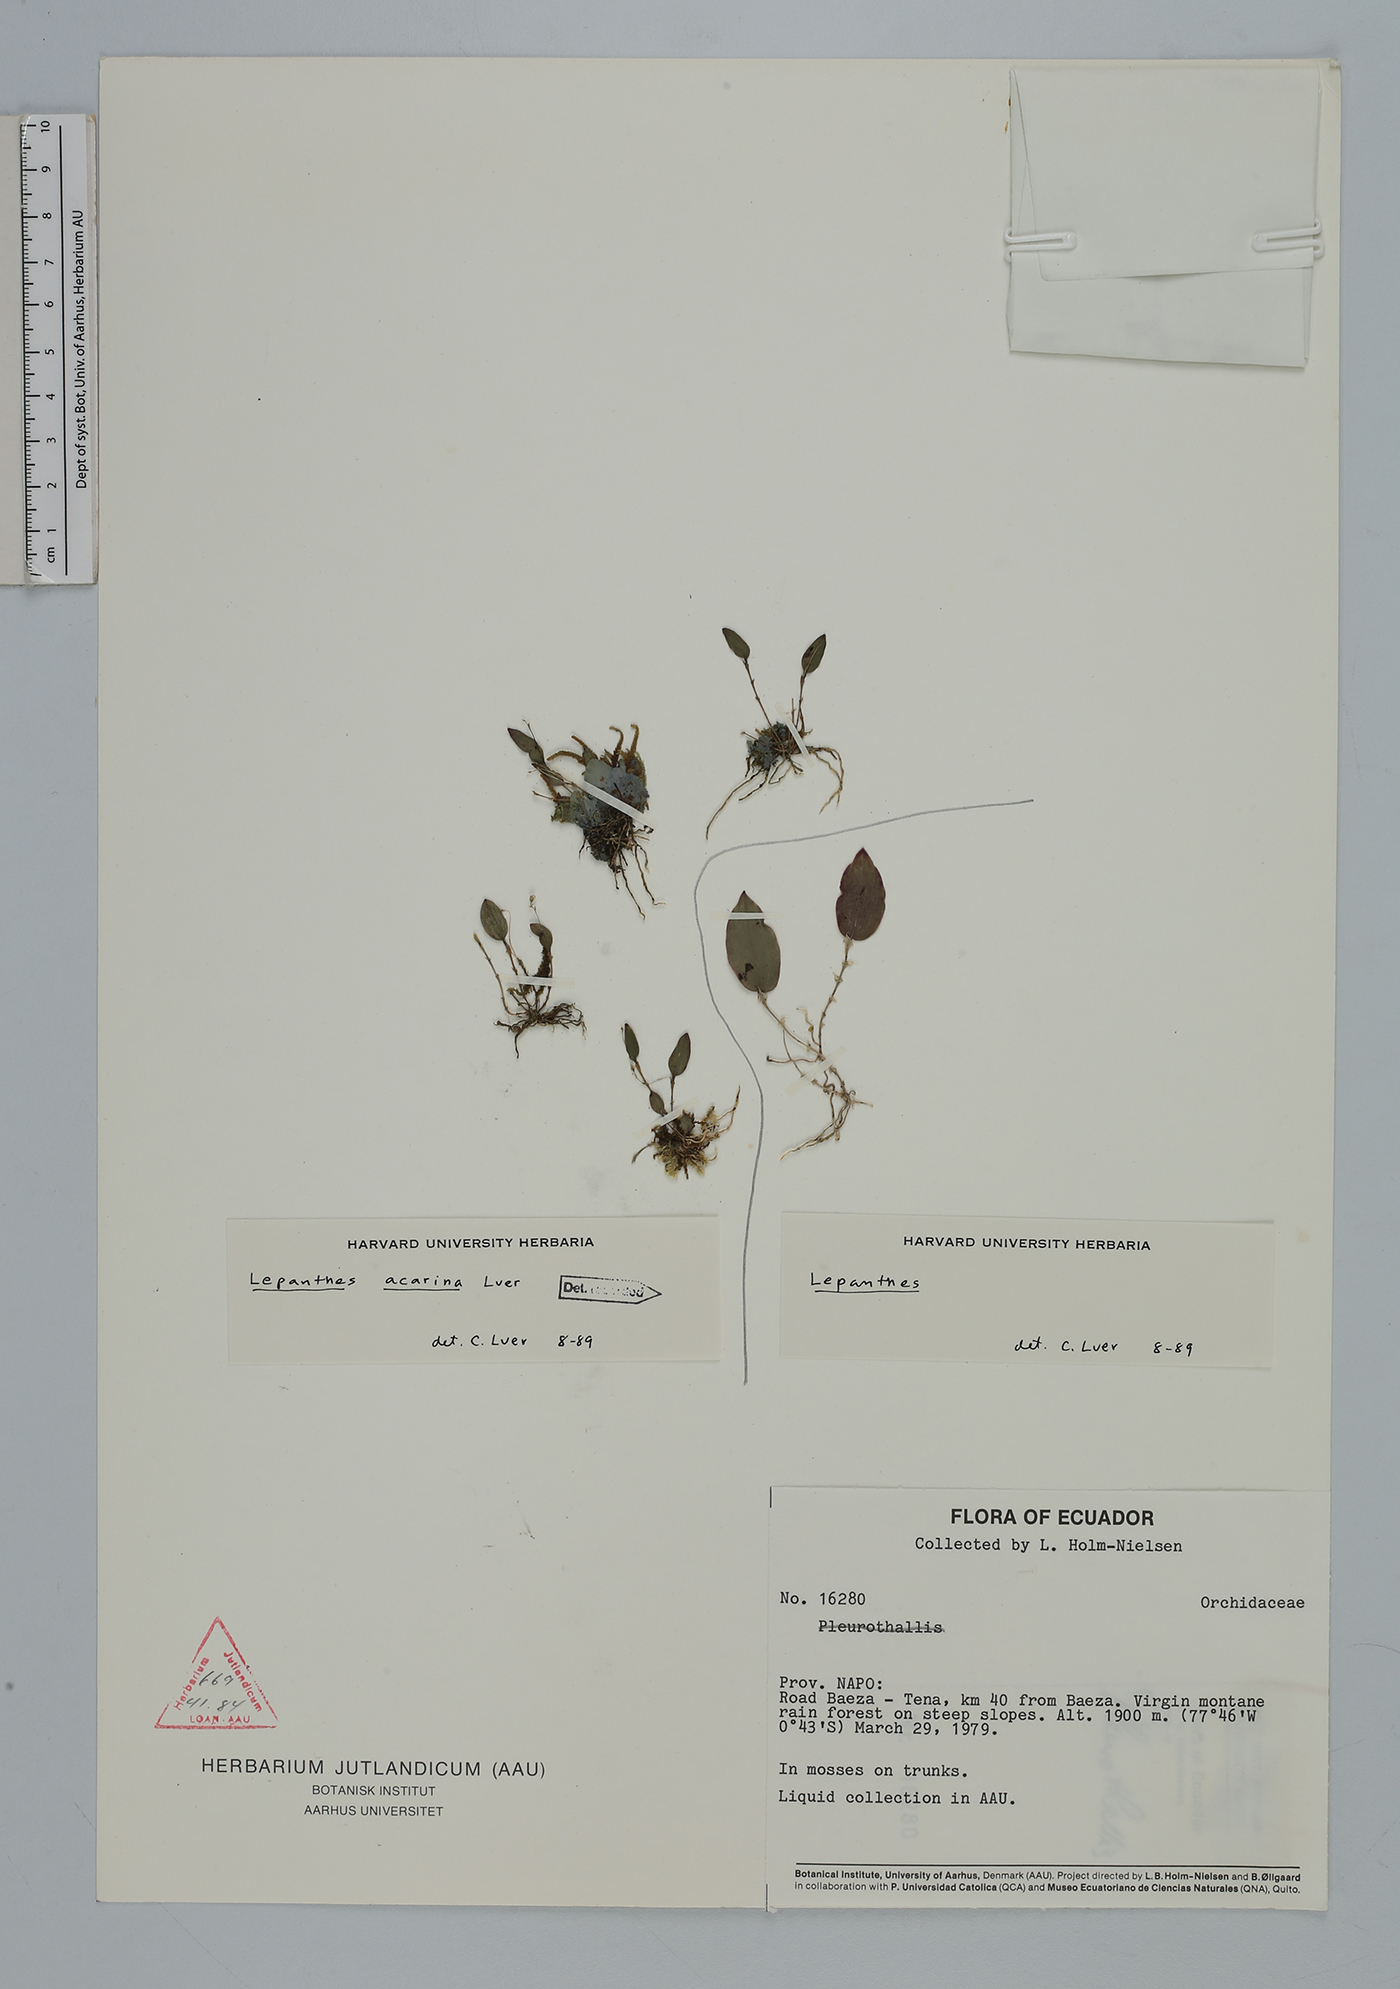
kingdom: Plantae
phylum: Tracheophyta
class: Liliopsida
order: Asparagales
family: Orchidaceae
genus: Lepanthes
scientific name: Lepanthes acarina
